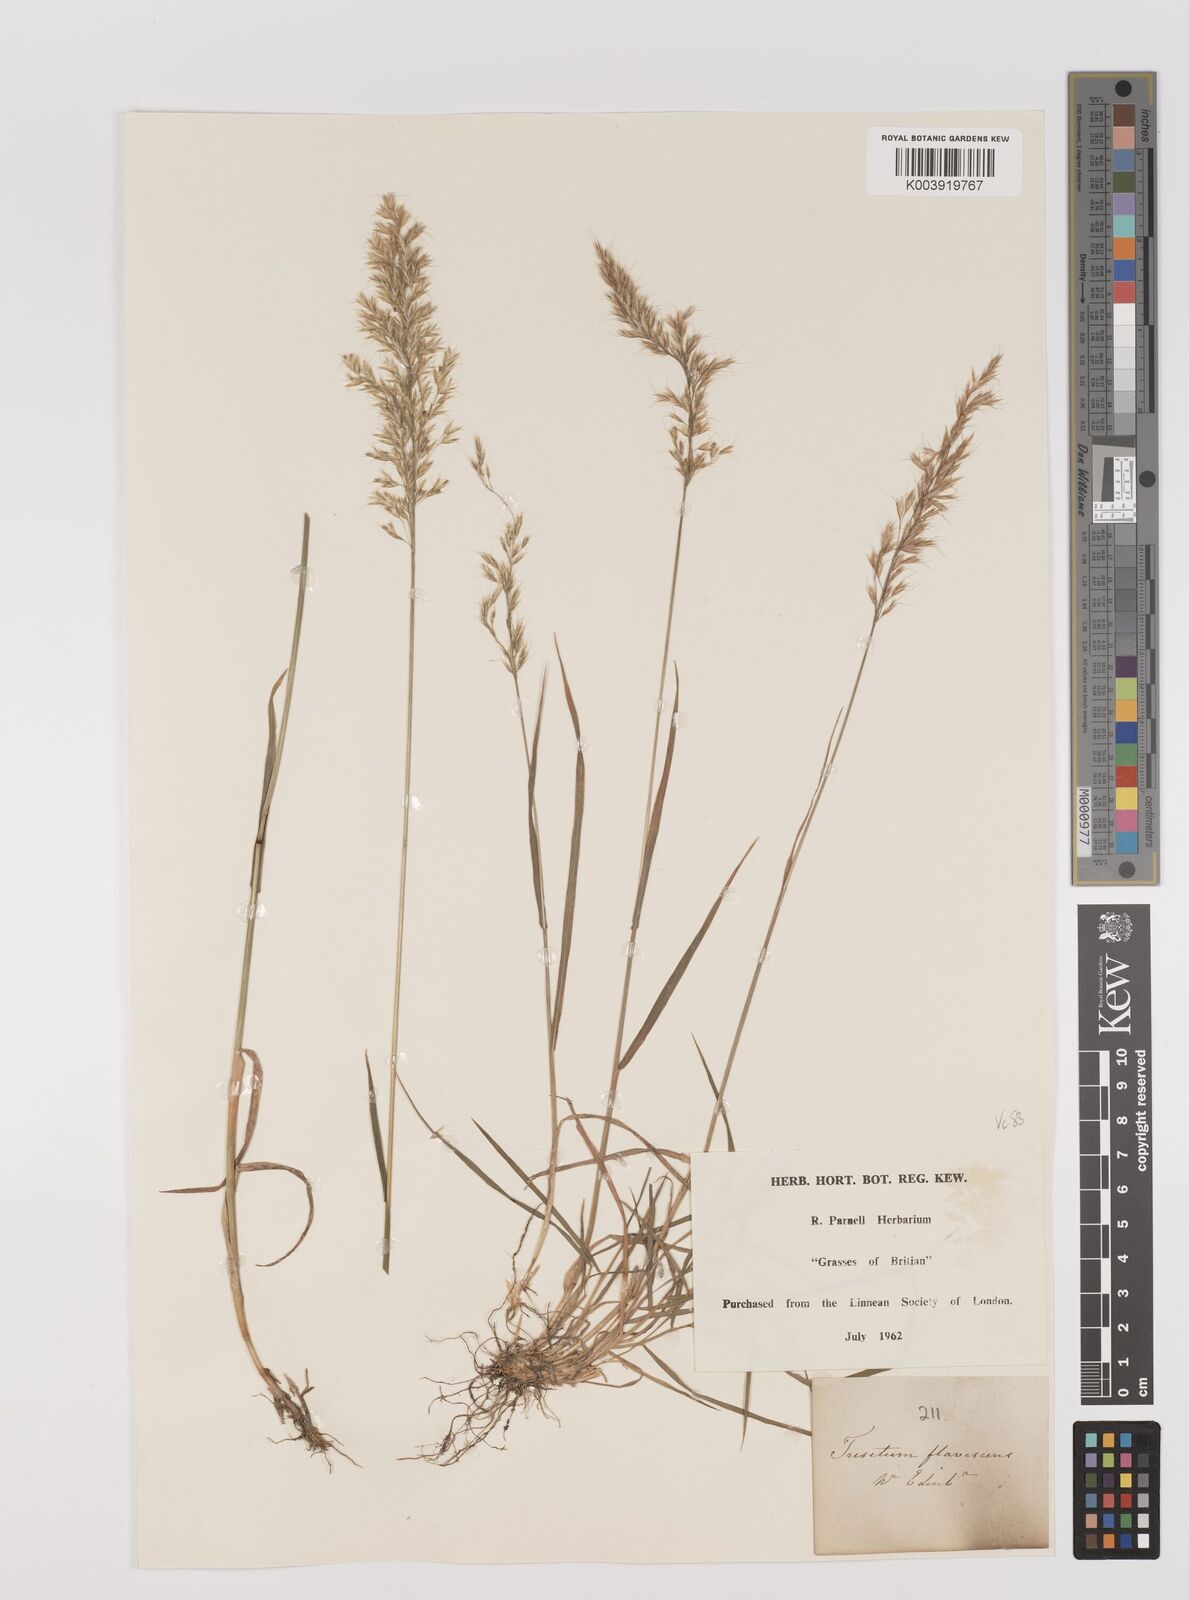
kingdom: Plantae
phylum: Tracheophyta
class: Liliopsida
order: Poales
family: Poaceae
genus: Trisetum
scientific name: Trisetum flavescens
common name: Yellow oat-grass
